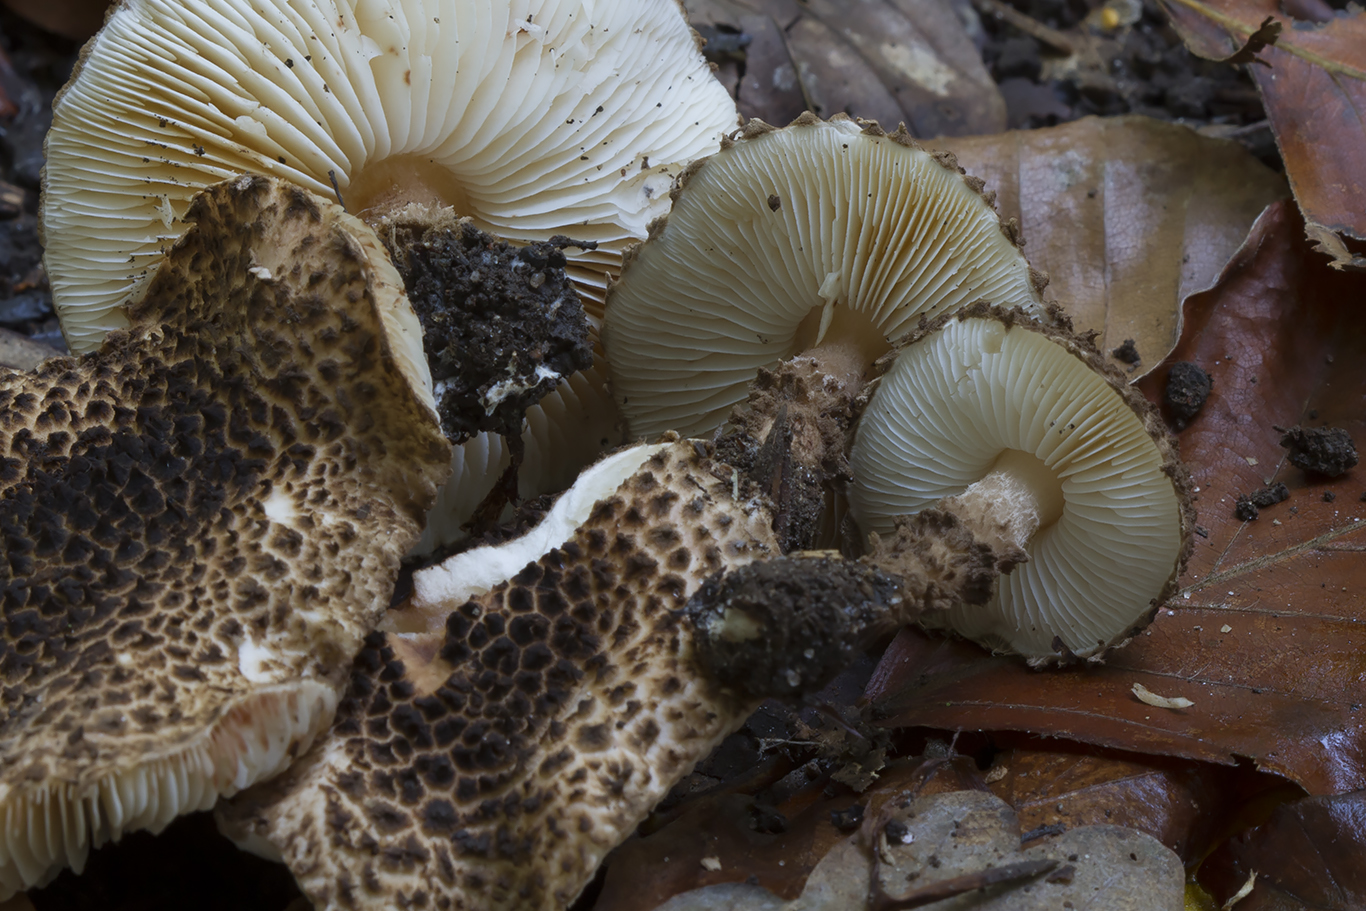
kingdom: Fungi
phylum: Basidiomycota
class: Agaricomycetes
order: Agaricales
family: Agaricaceae
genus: Echinoderma
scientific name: Echinoderma jacobi
